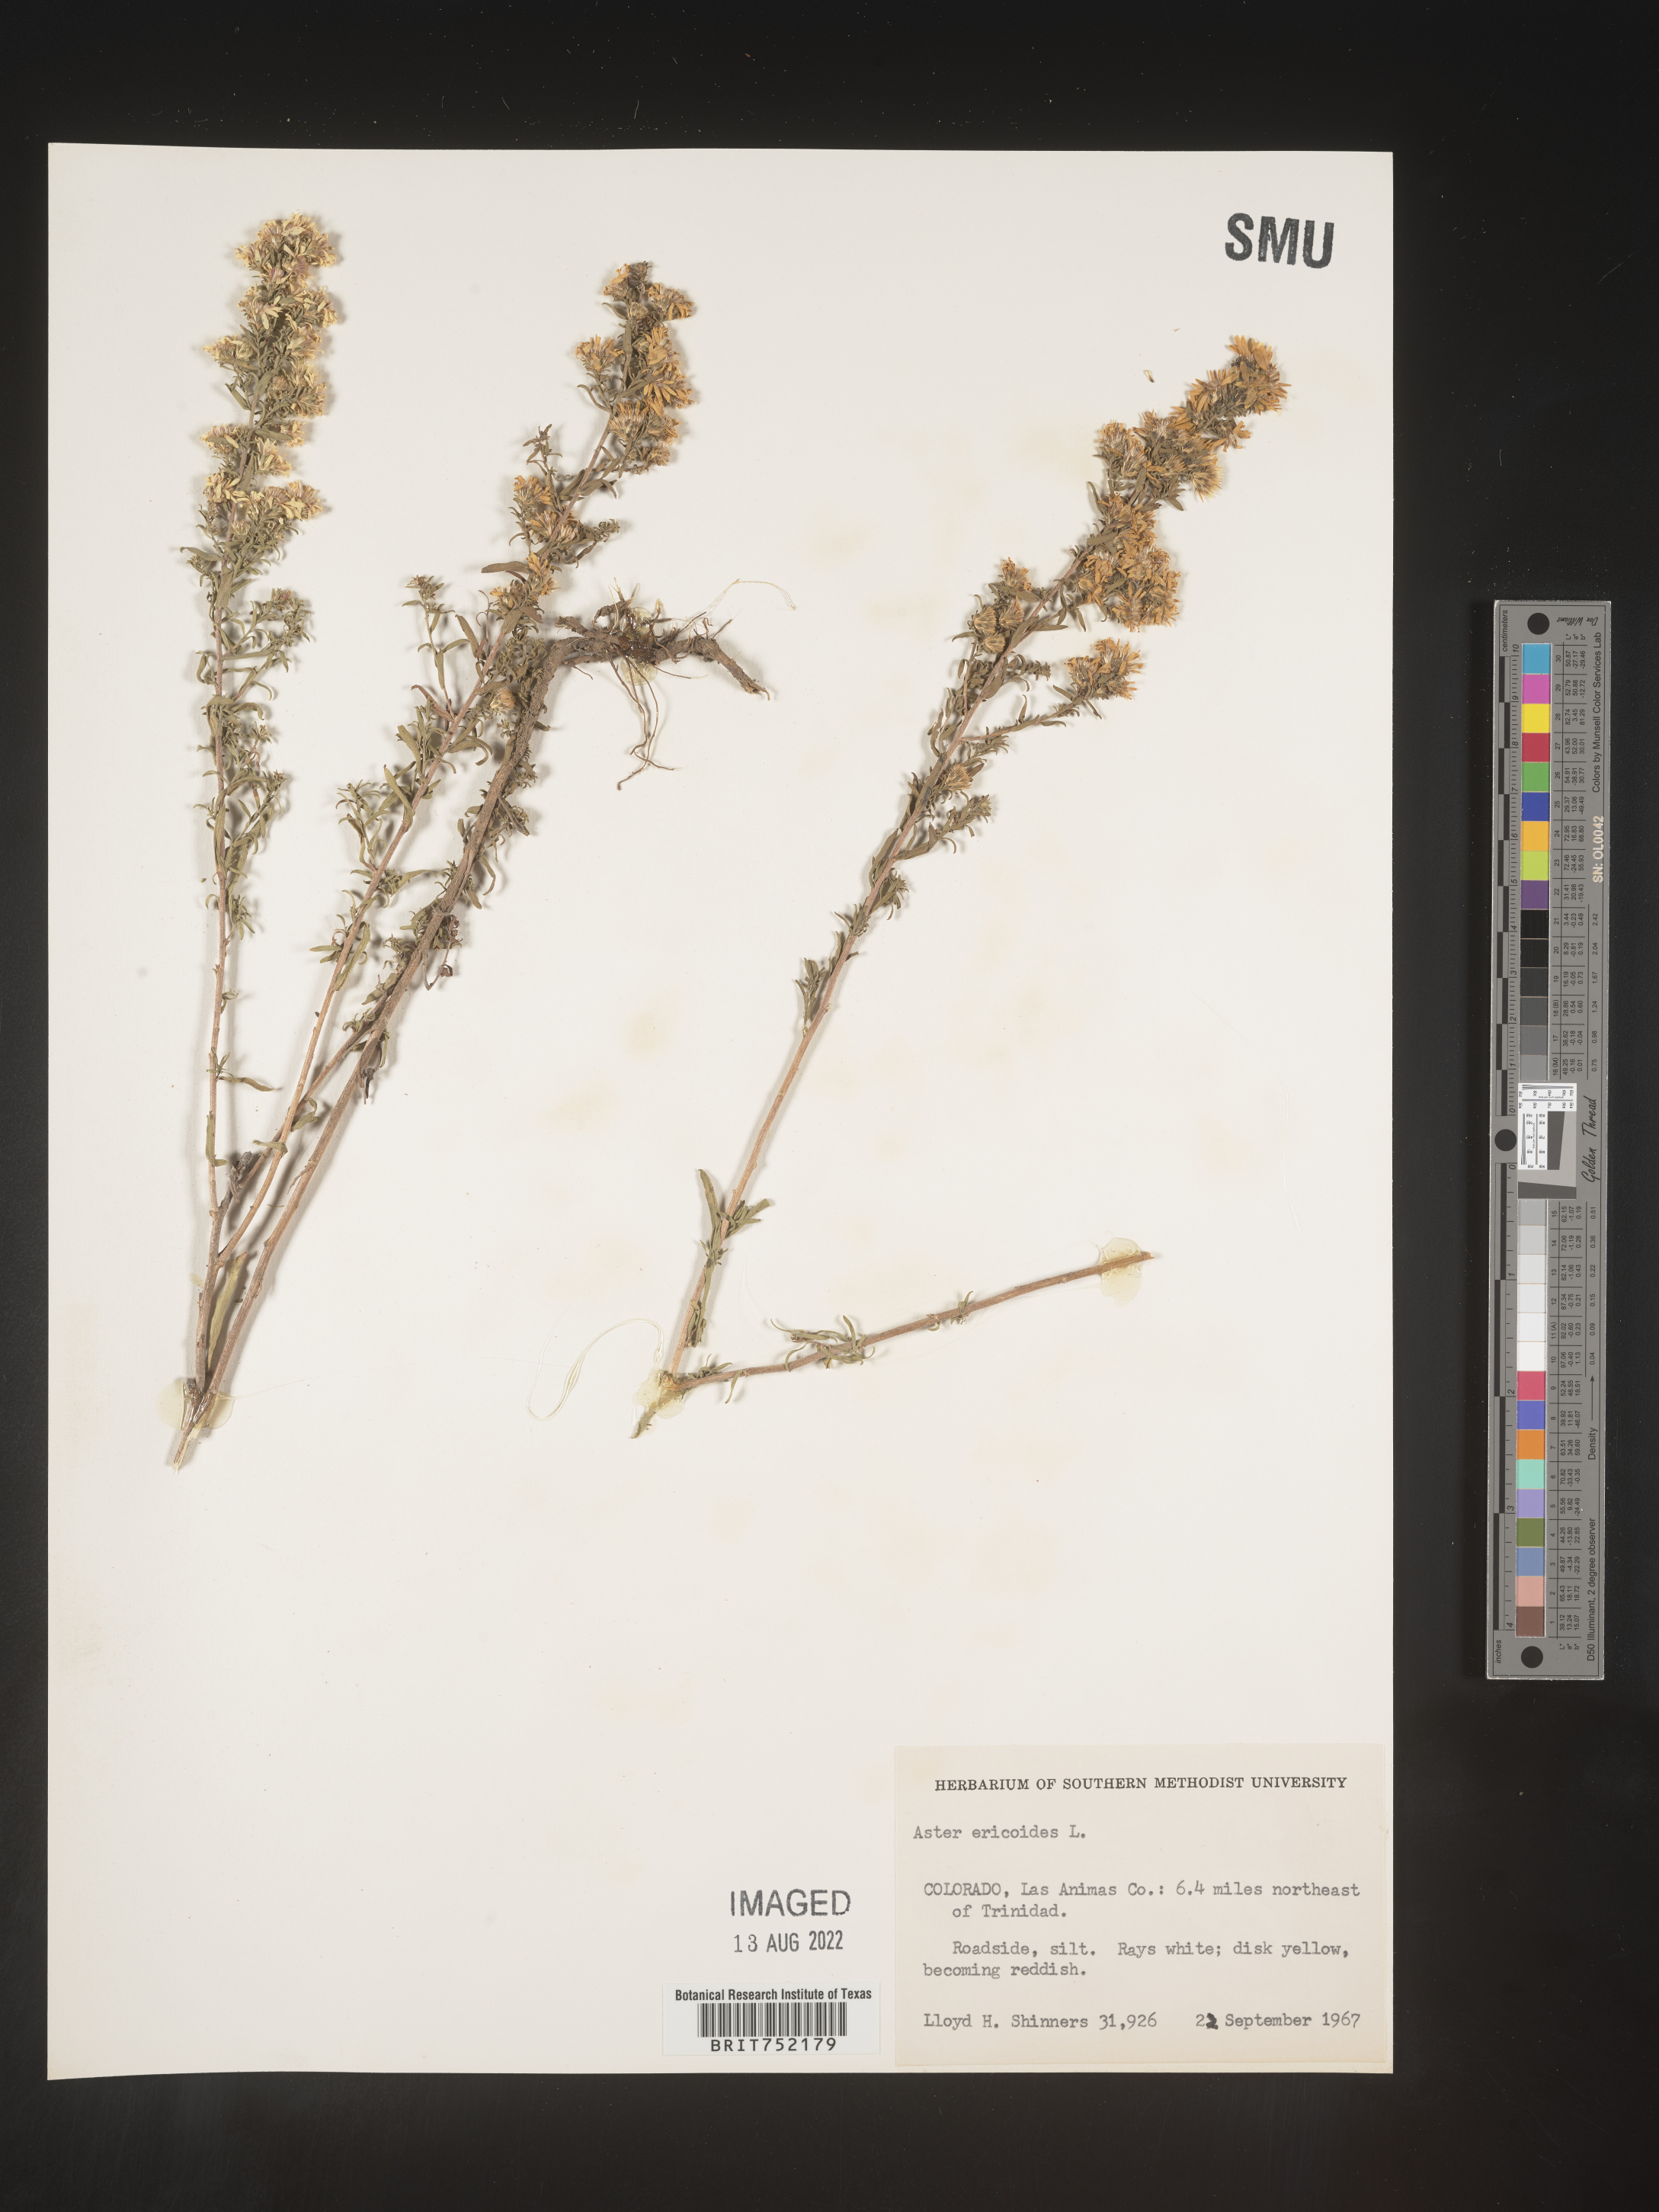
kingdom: Plantae
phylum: Tracheophyta
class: Magnoliopsida
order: Asterales
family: Asteraceae
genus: Symphyotrichum
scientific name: Symphyotrichum ericoides
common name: Heath aster
